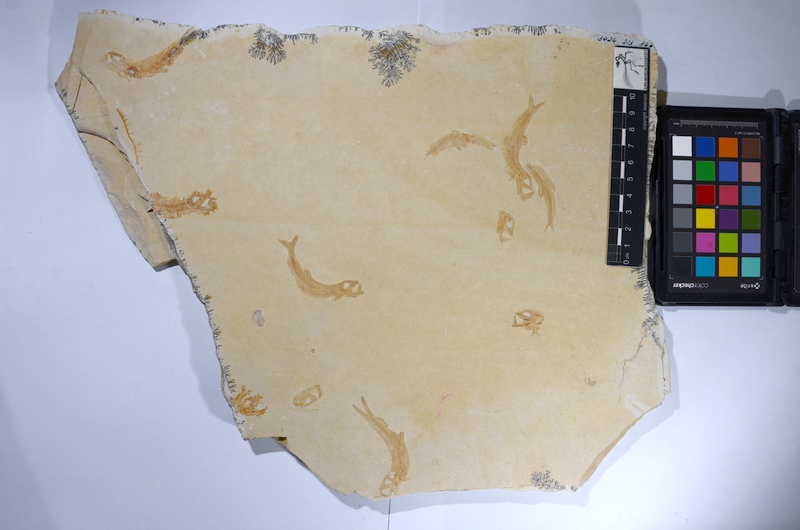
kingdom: Animalia
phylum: Chordata
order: Salmoniformes
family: Orthogonikleithridae
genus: Leptolepides
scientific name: Leptolepides sprattiformis
